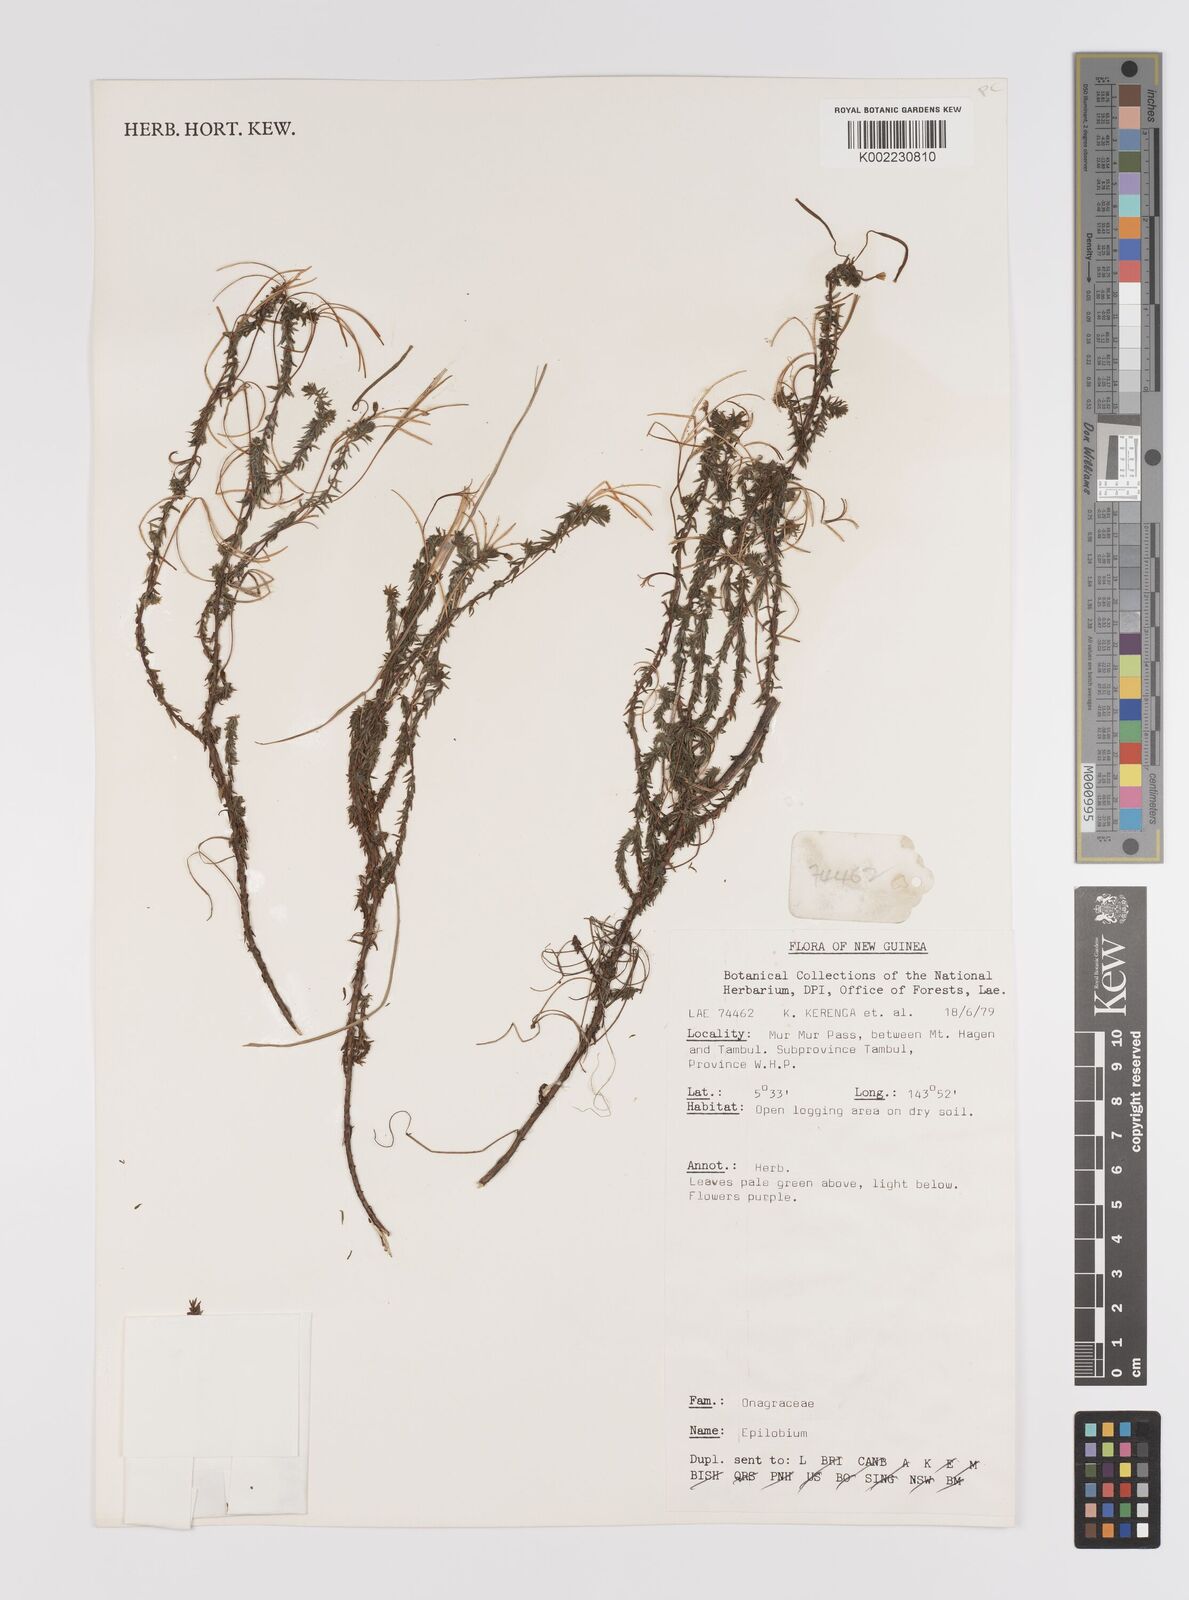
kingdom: Plantae
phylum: Tracheophyta
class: Magnoliopsida
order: Myrtales
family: Onagraceae
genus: Epilobium
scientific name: Epilobium
